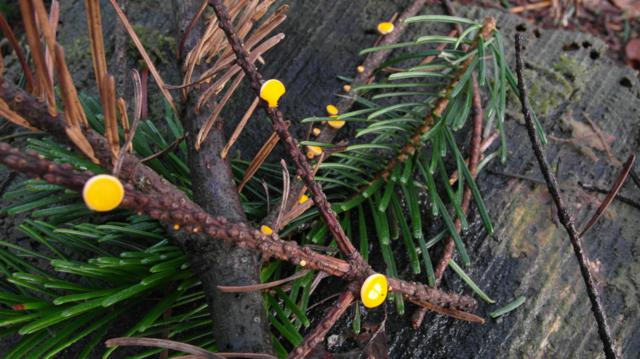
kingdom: Fungi
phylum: Ascomycota
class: Pezizomycetes
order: Pezizales
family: Sarcoscyphaceae
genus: Pithya
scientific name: Pithya vulgaris
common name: stor dukatbæger
